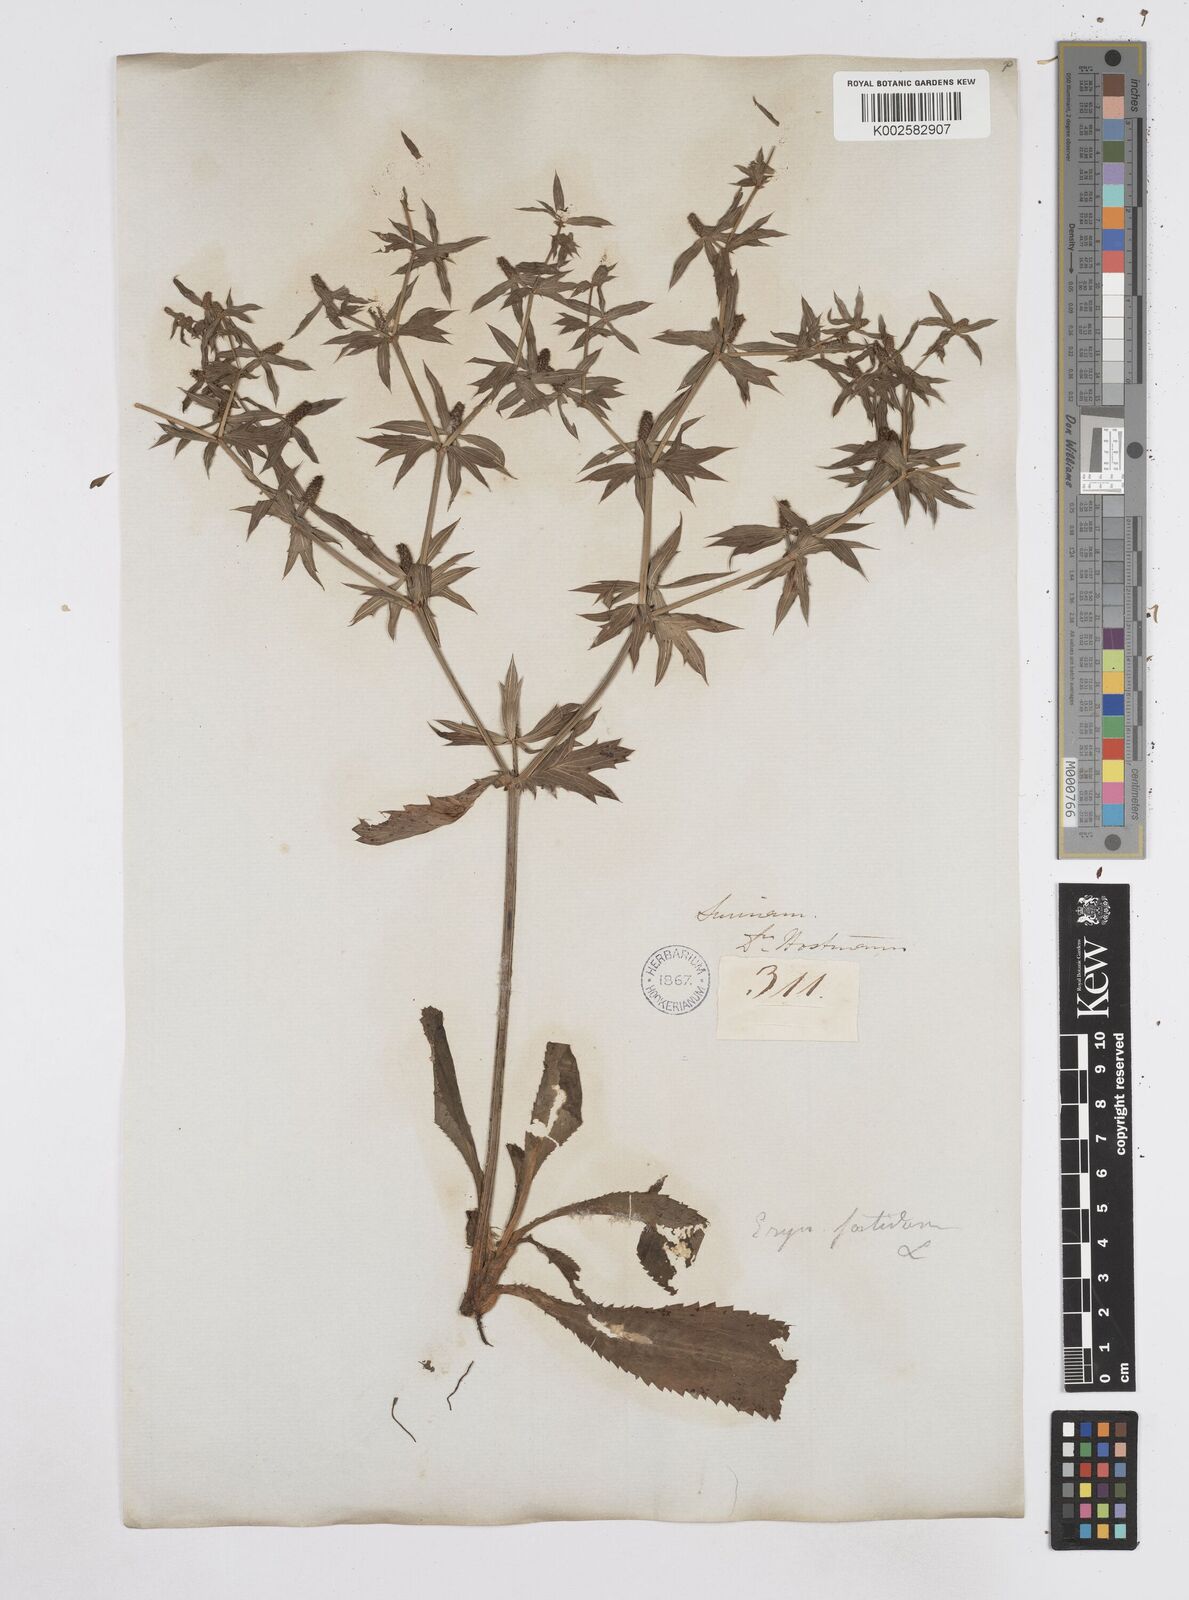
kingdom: Plantae
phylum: Tracheophyta
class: Magnoliopsida
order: Apiales
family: Apiaceae
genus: Eryngium
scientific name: Eryngium foetidum
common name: Fitweed
